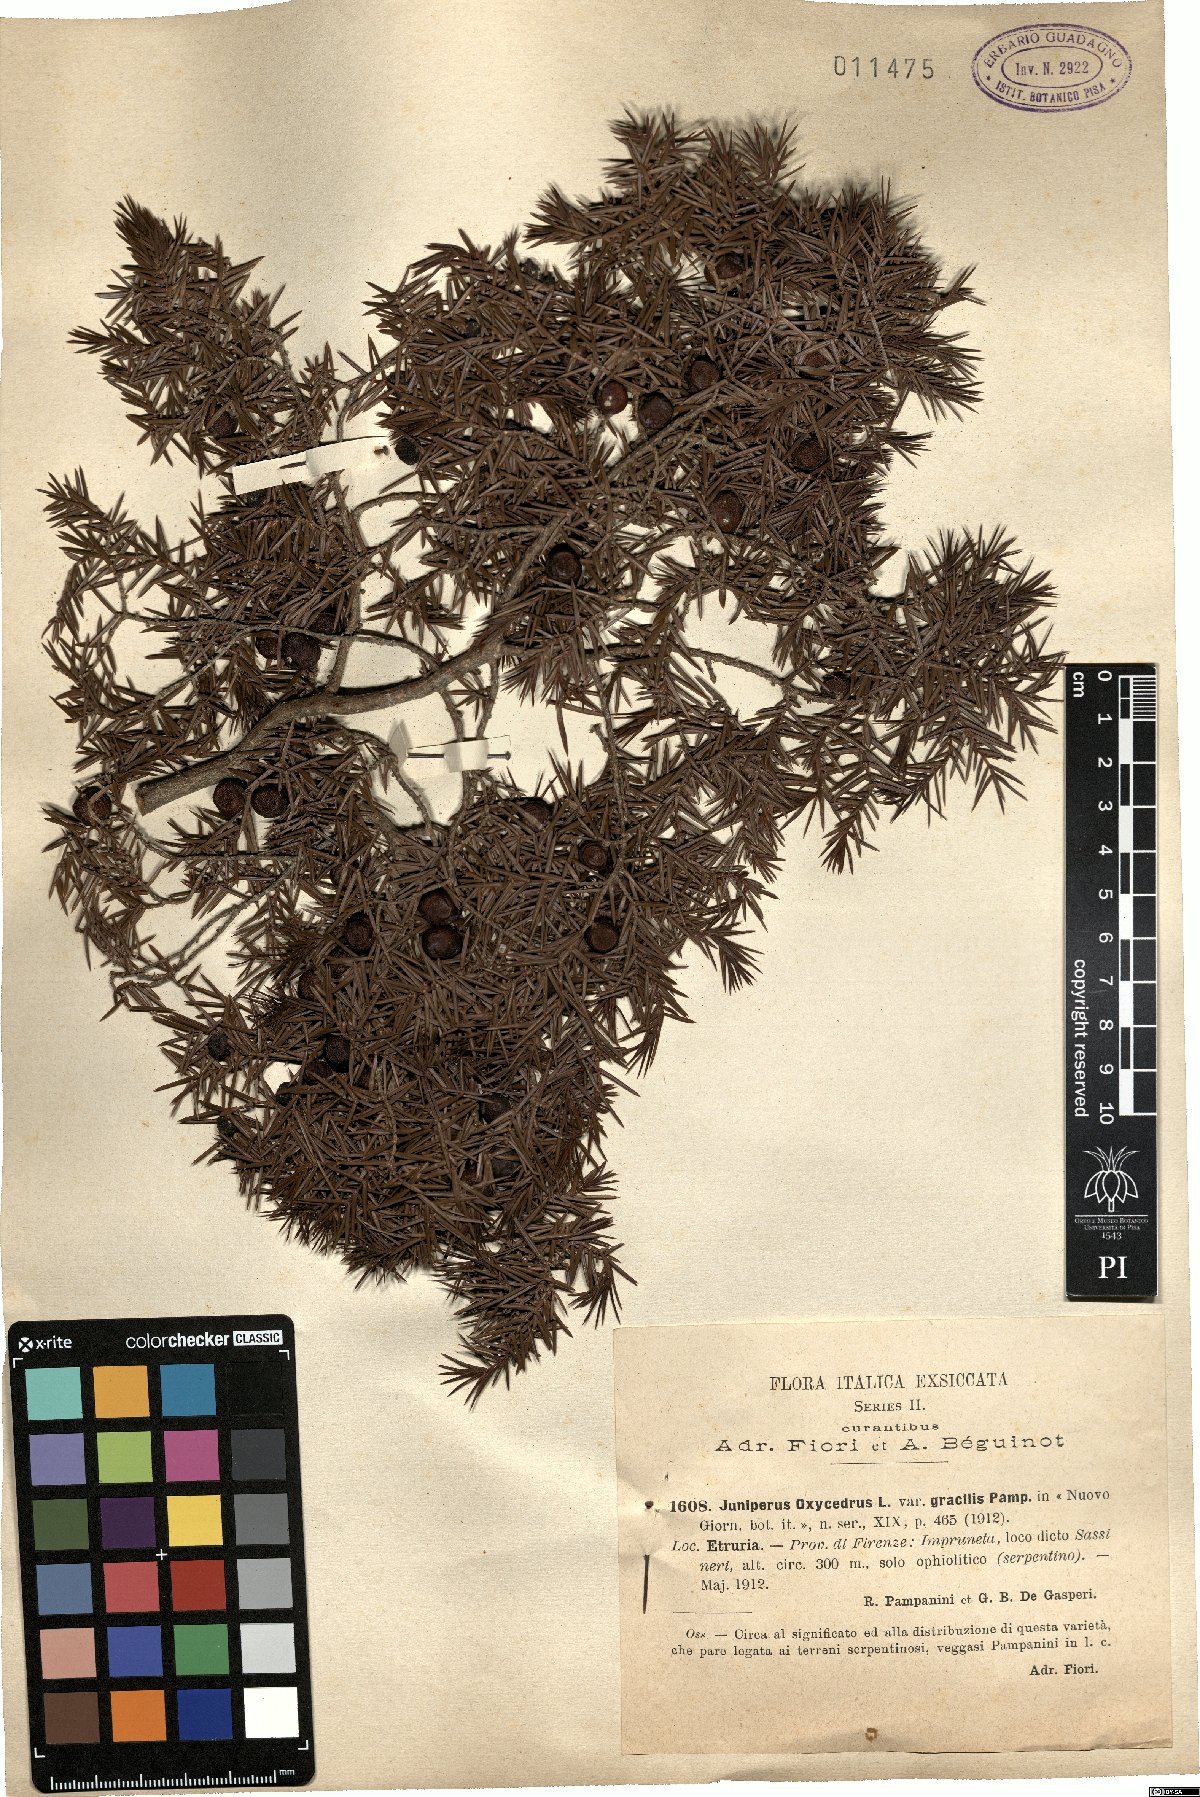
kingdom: Plantae
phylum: Tracheophyta
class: Pinopsida
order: Pinales
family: Cupressaceae
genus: Juniperus
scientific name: Juniperus oxycedrus
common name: Prickly juniper
